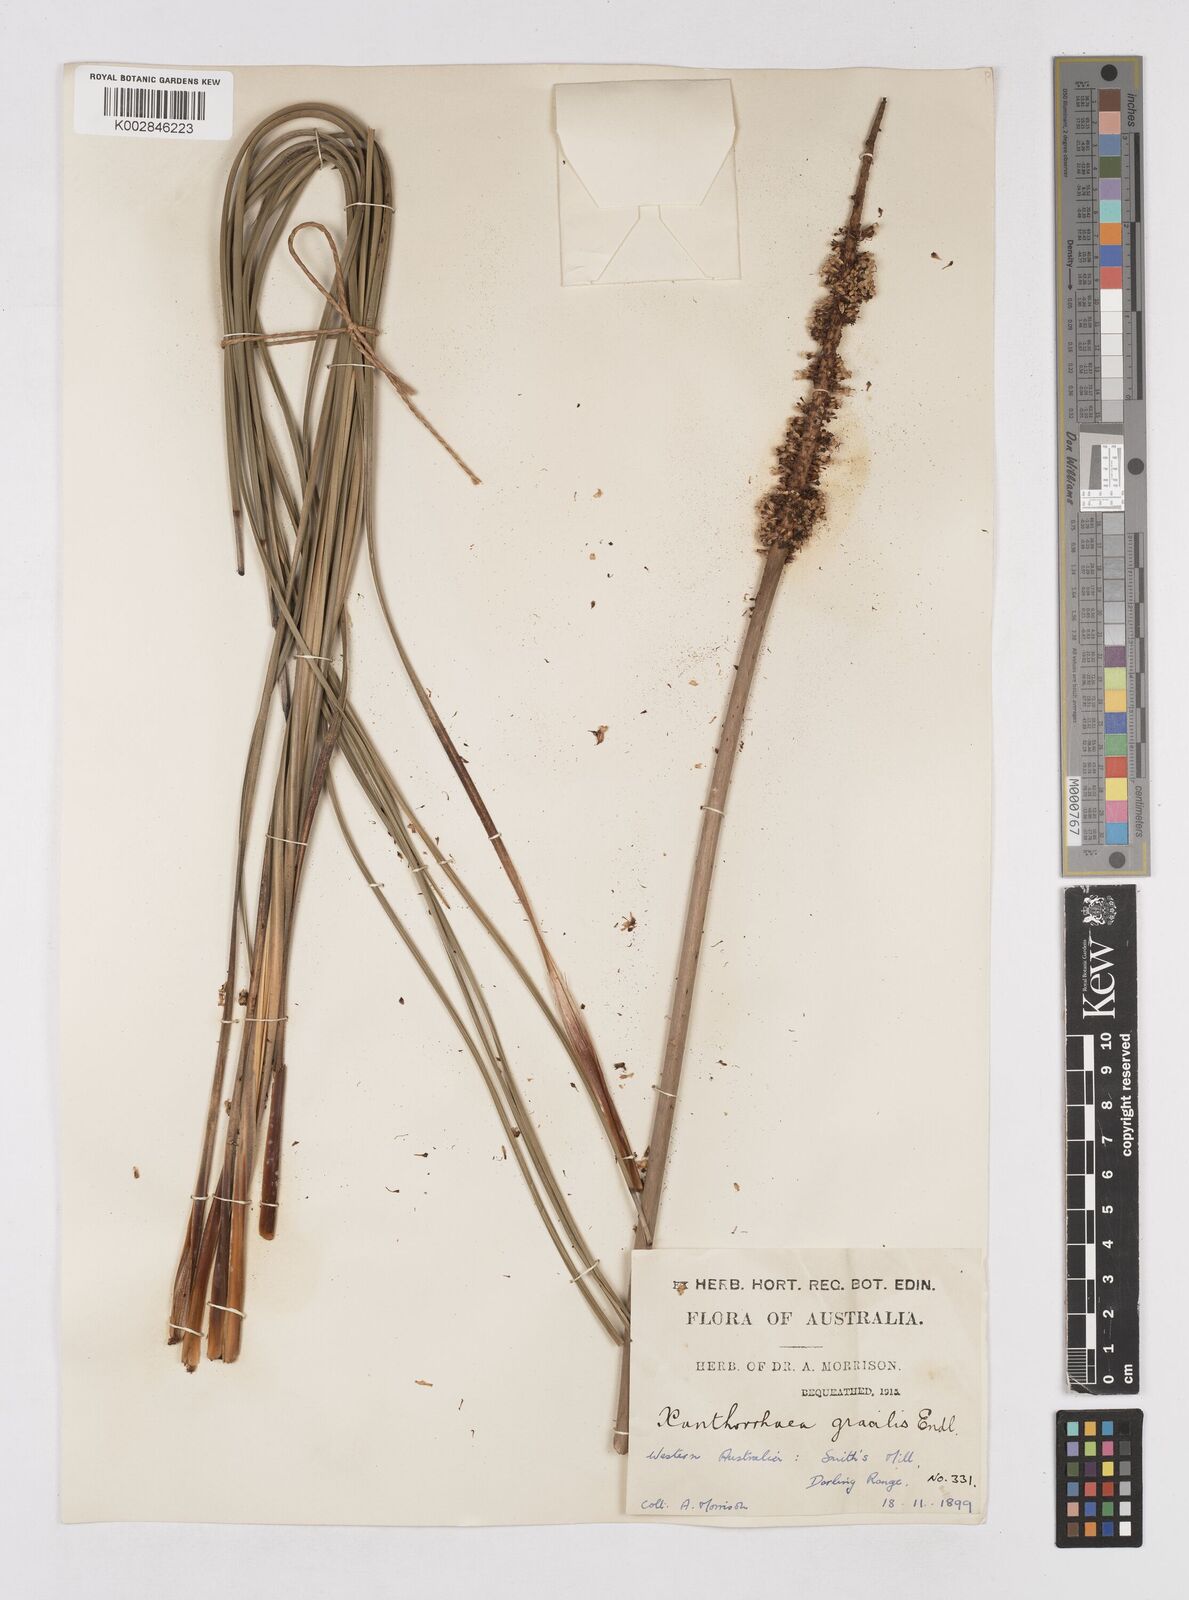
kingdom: Plantae
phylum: Tracheophyta
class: Liliopsida
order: Asparagales
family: Asphodelaceae
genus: Xanthorrhoea
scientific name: Xanthorrhoea gracilis
